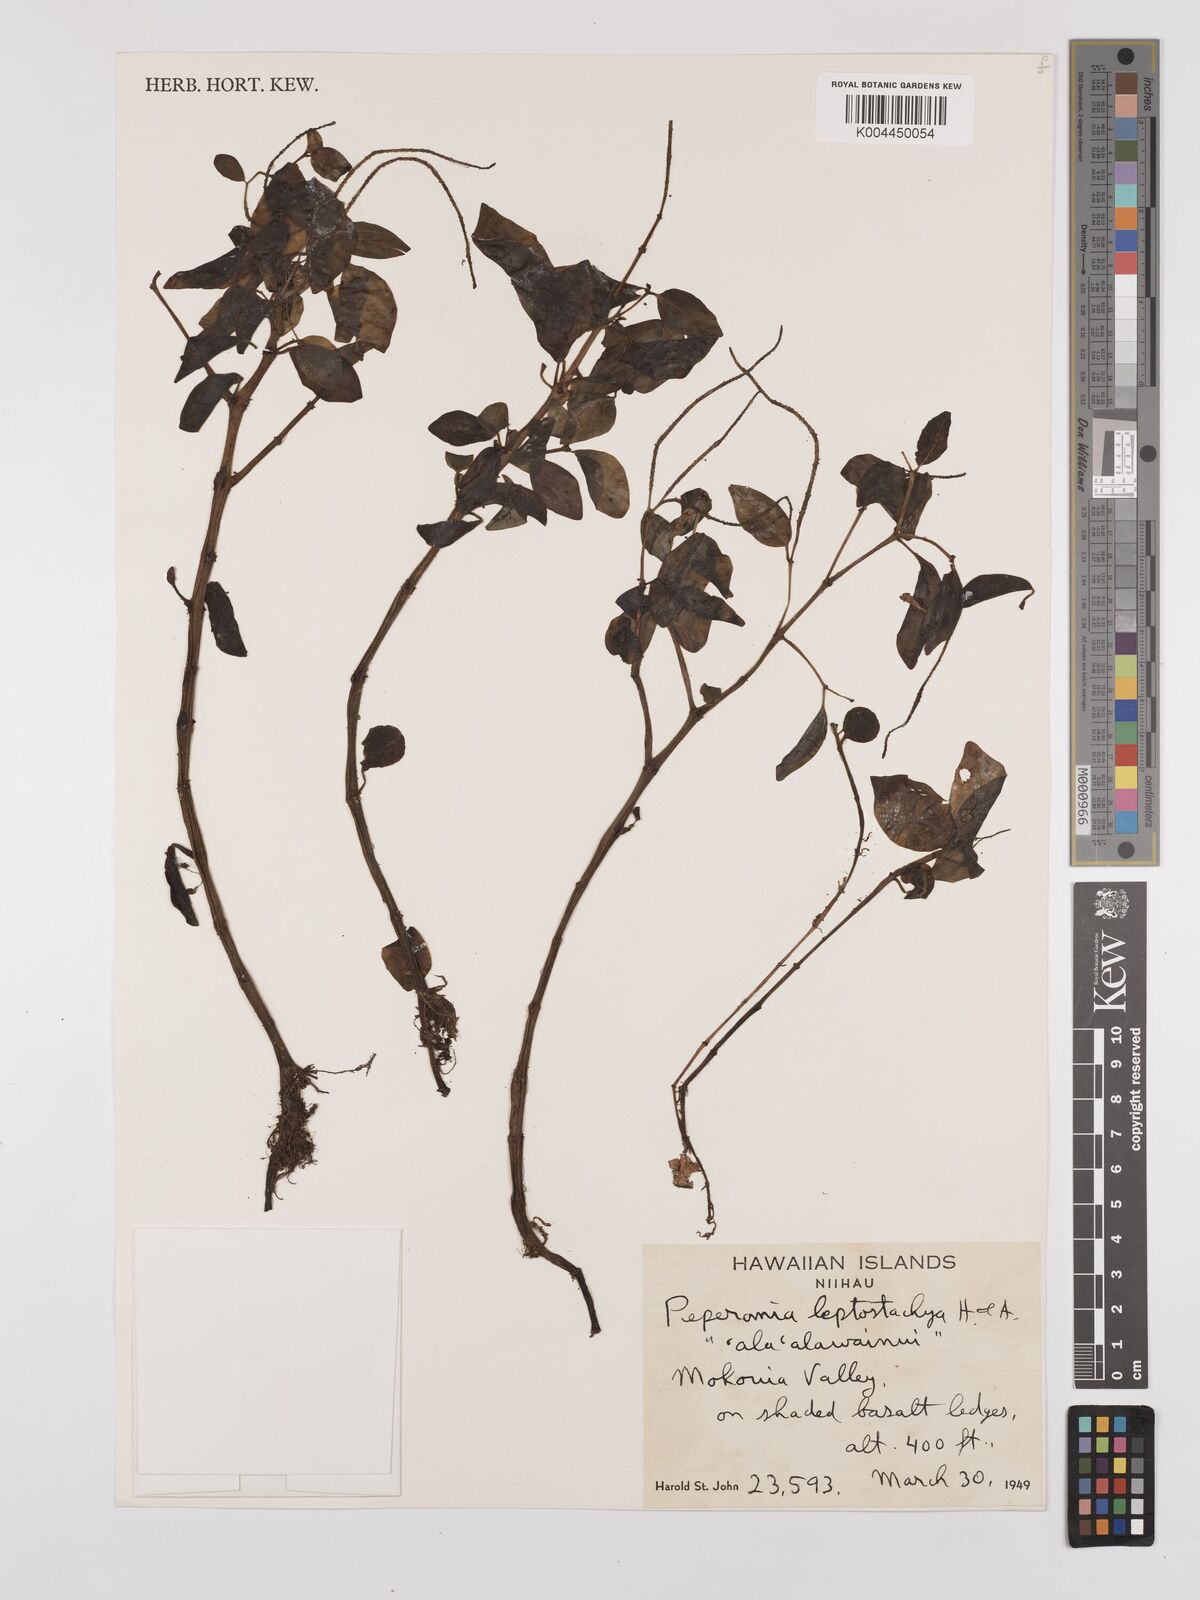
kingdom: Plantae
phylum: Tracheophyta
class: Magnoliopsida
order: Piperales
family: Piperaceae
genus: Peperomia
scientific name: Peperomia leptostachya
